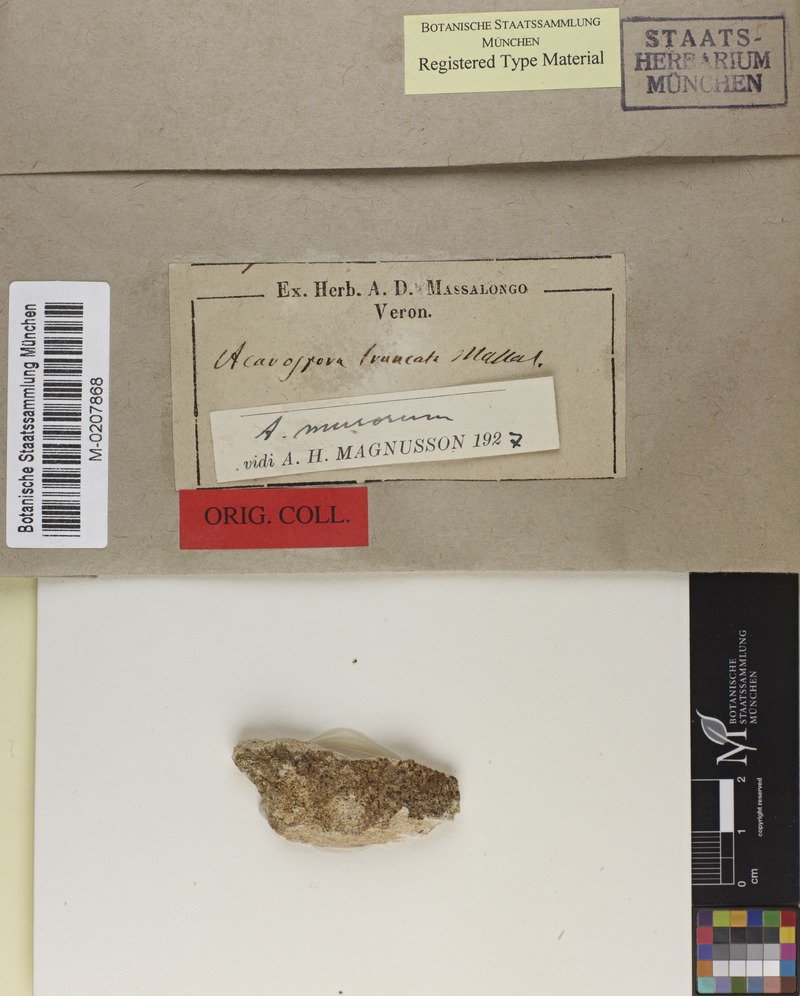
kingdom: Fungi
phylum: Ascomycota
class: Lecanoromycetes
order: Acarosporales
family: Acarosporaceae
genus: Acarospora
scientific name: Acarospora macrospora
